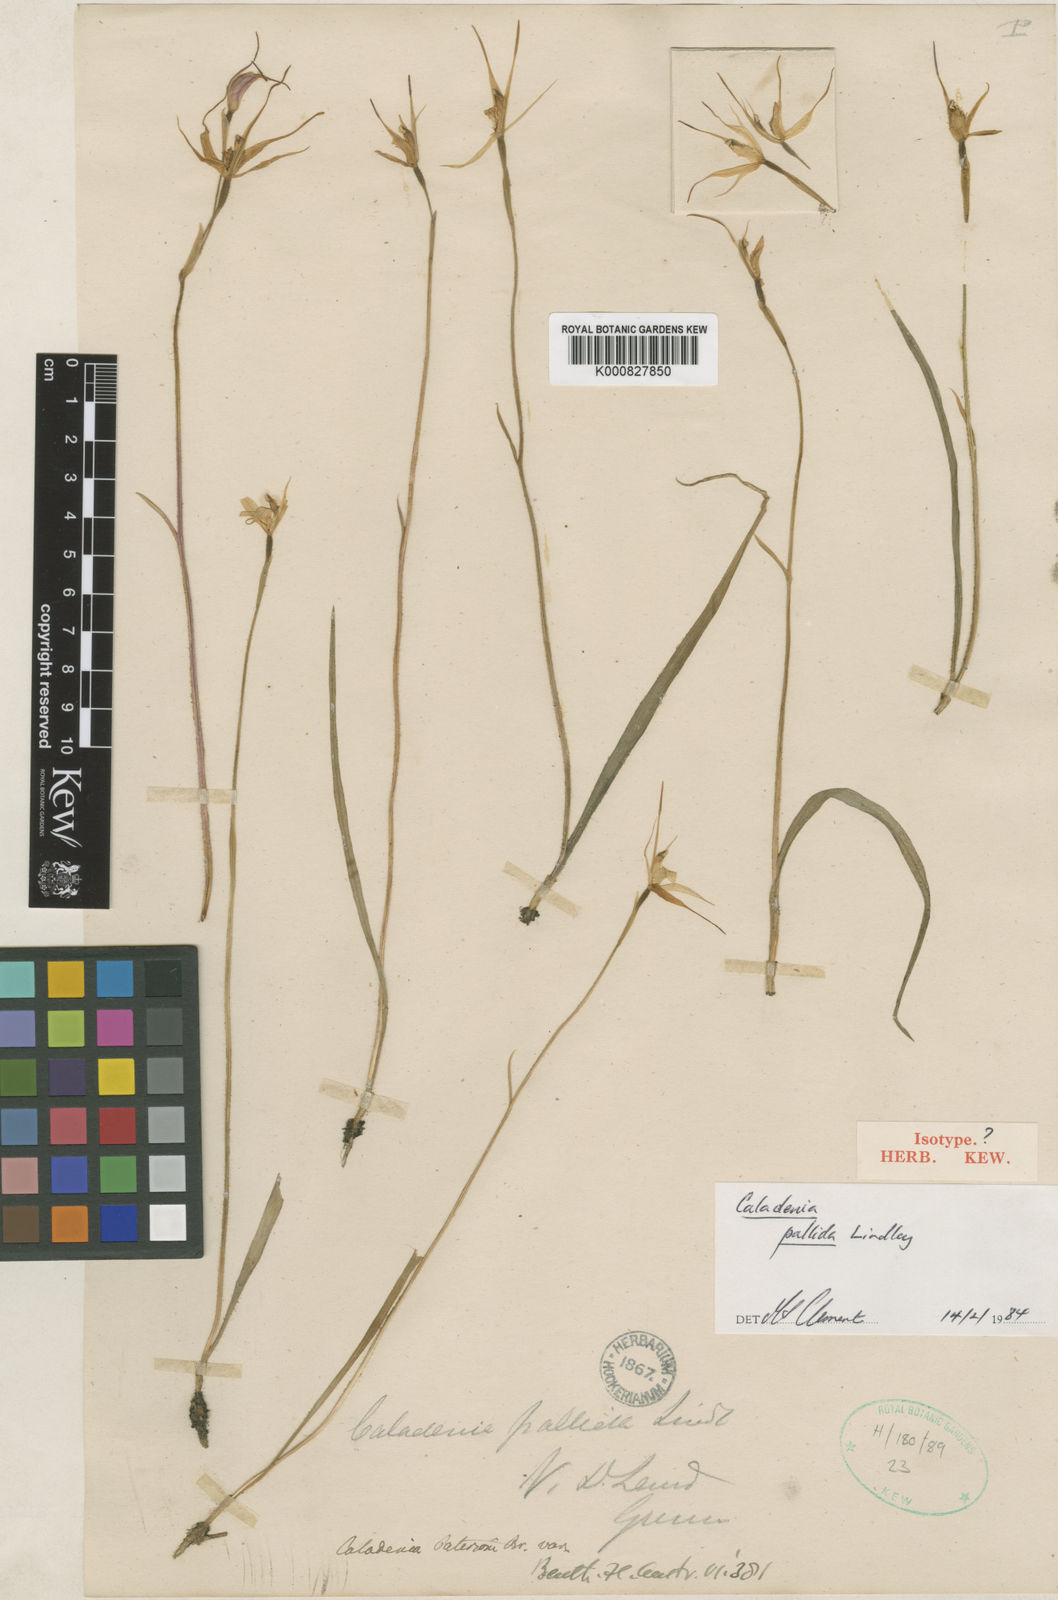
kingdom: Plantae
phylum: Tracheophyta
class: Liliopsida
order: Asparagales
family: Orchidaceae
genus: Caladenia
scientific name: Caladenia pallida
